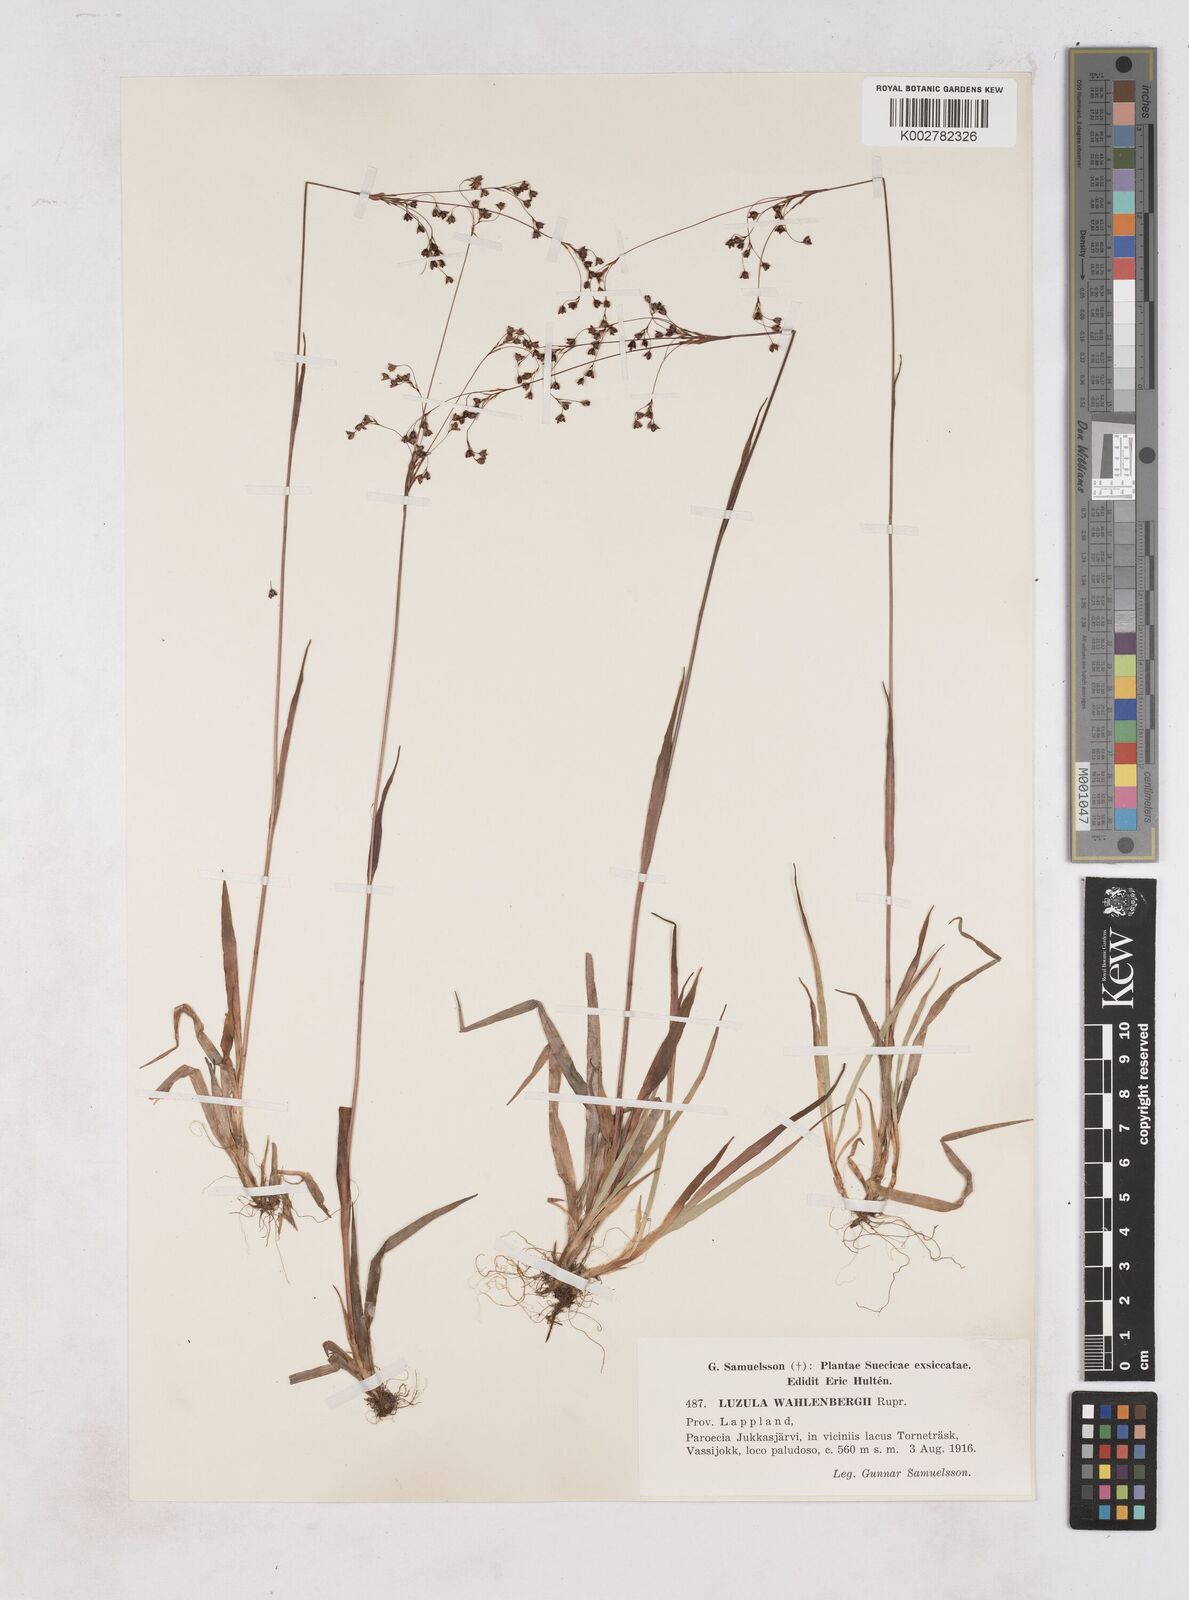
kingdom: Plantae
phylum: Tracheophyta
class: Liliopsida
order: Poales
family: Juncaceae
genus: Luzula
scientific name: Luzula alpinopilosa
